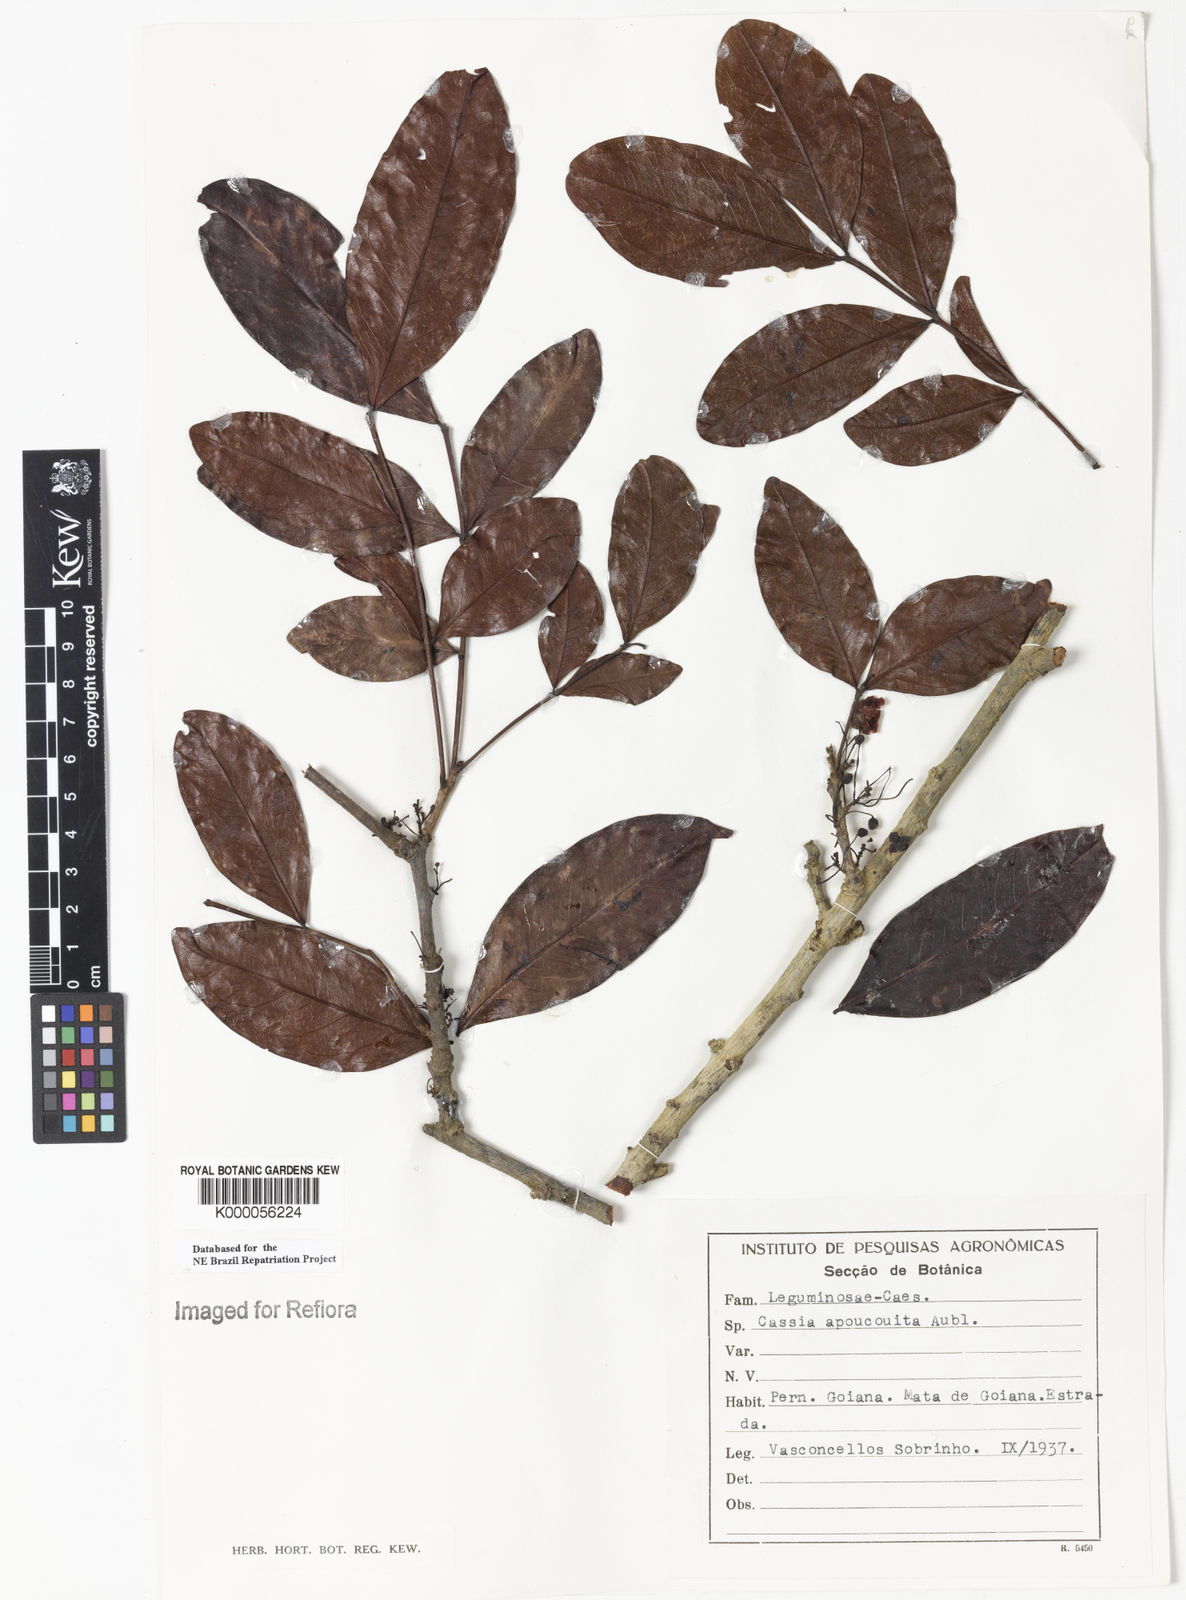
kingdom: Plantae
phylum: Tracheophyta
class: Magnoliopsida
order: Fabales
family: Fabaceae
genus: Chamaecrista
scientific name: Chamaecrista apoucouita
